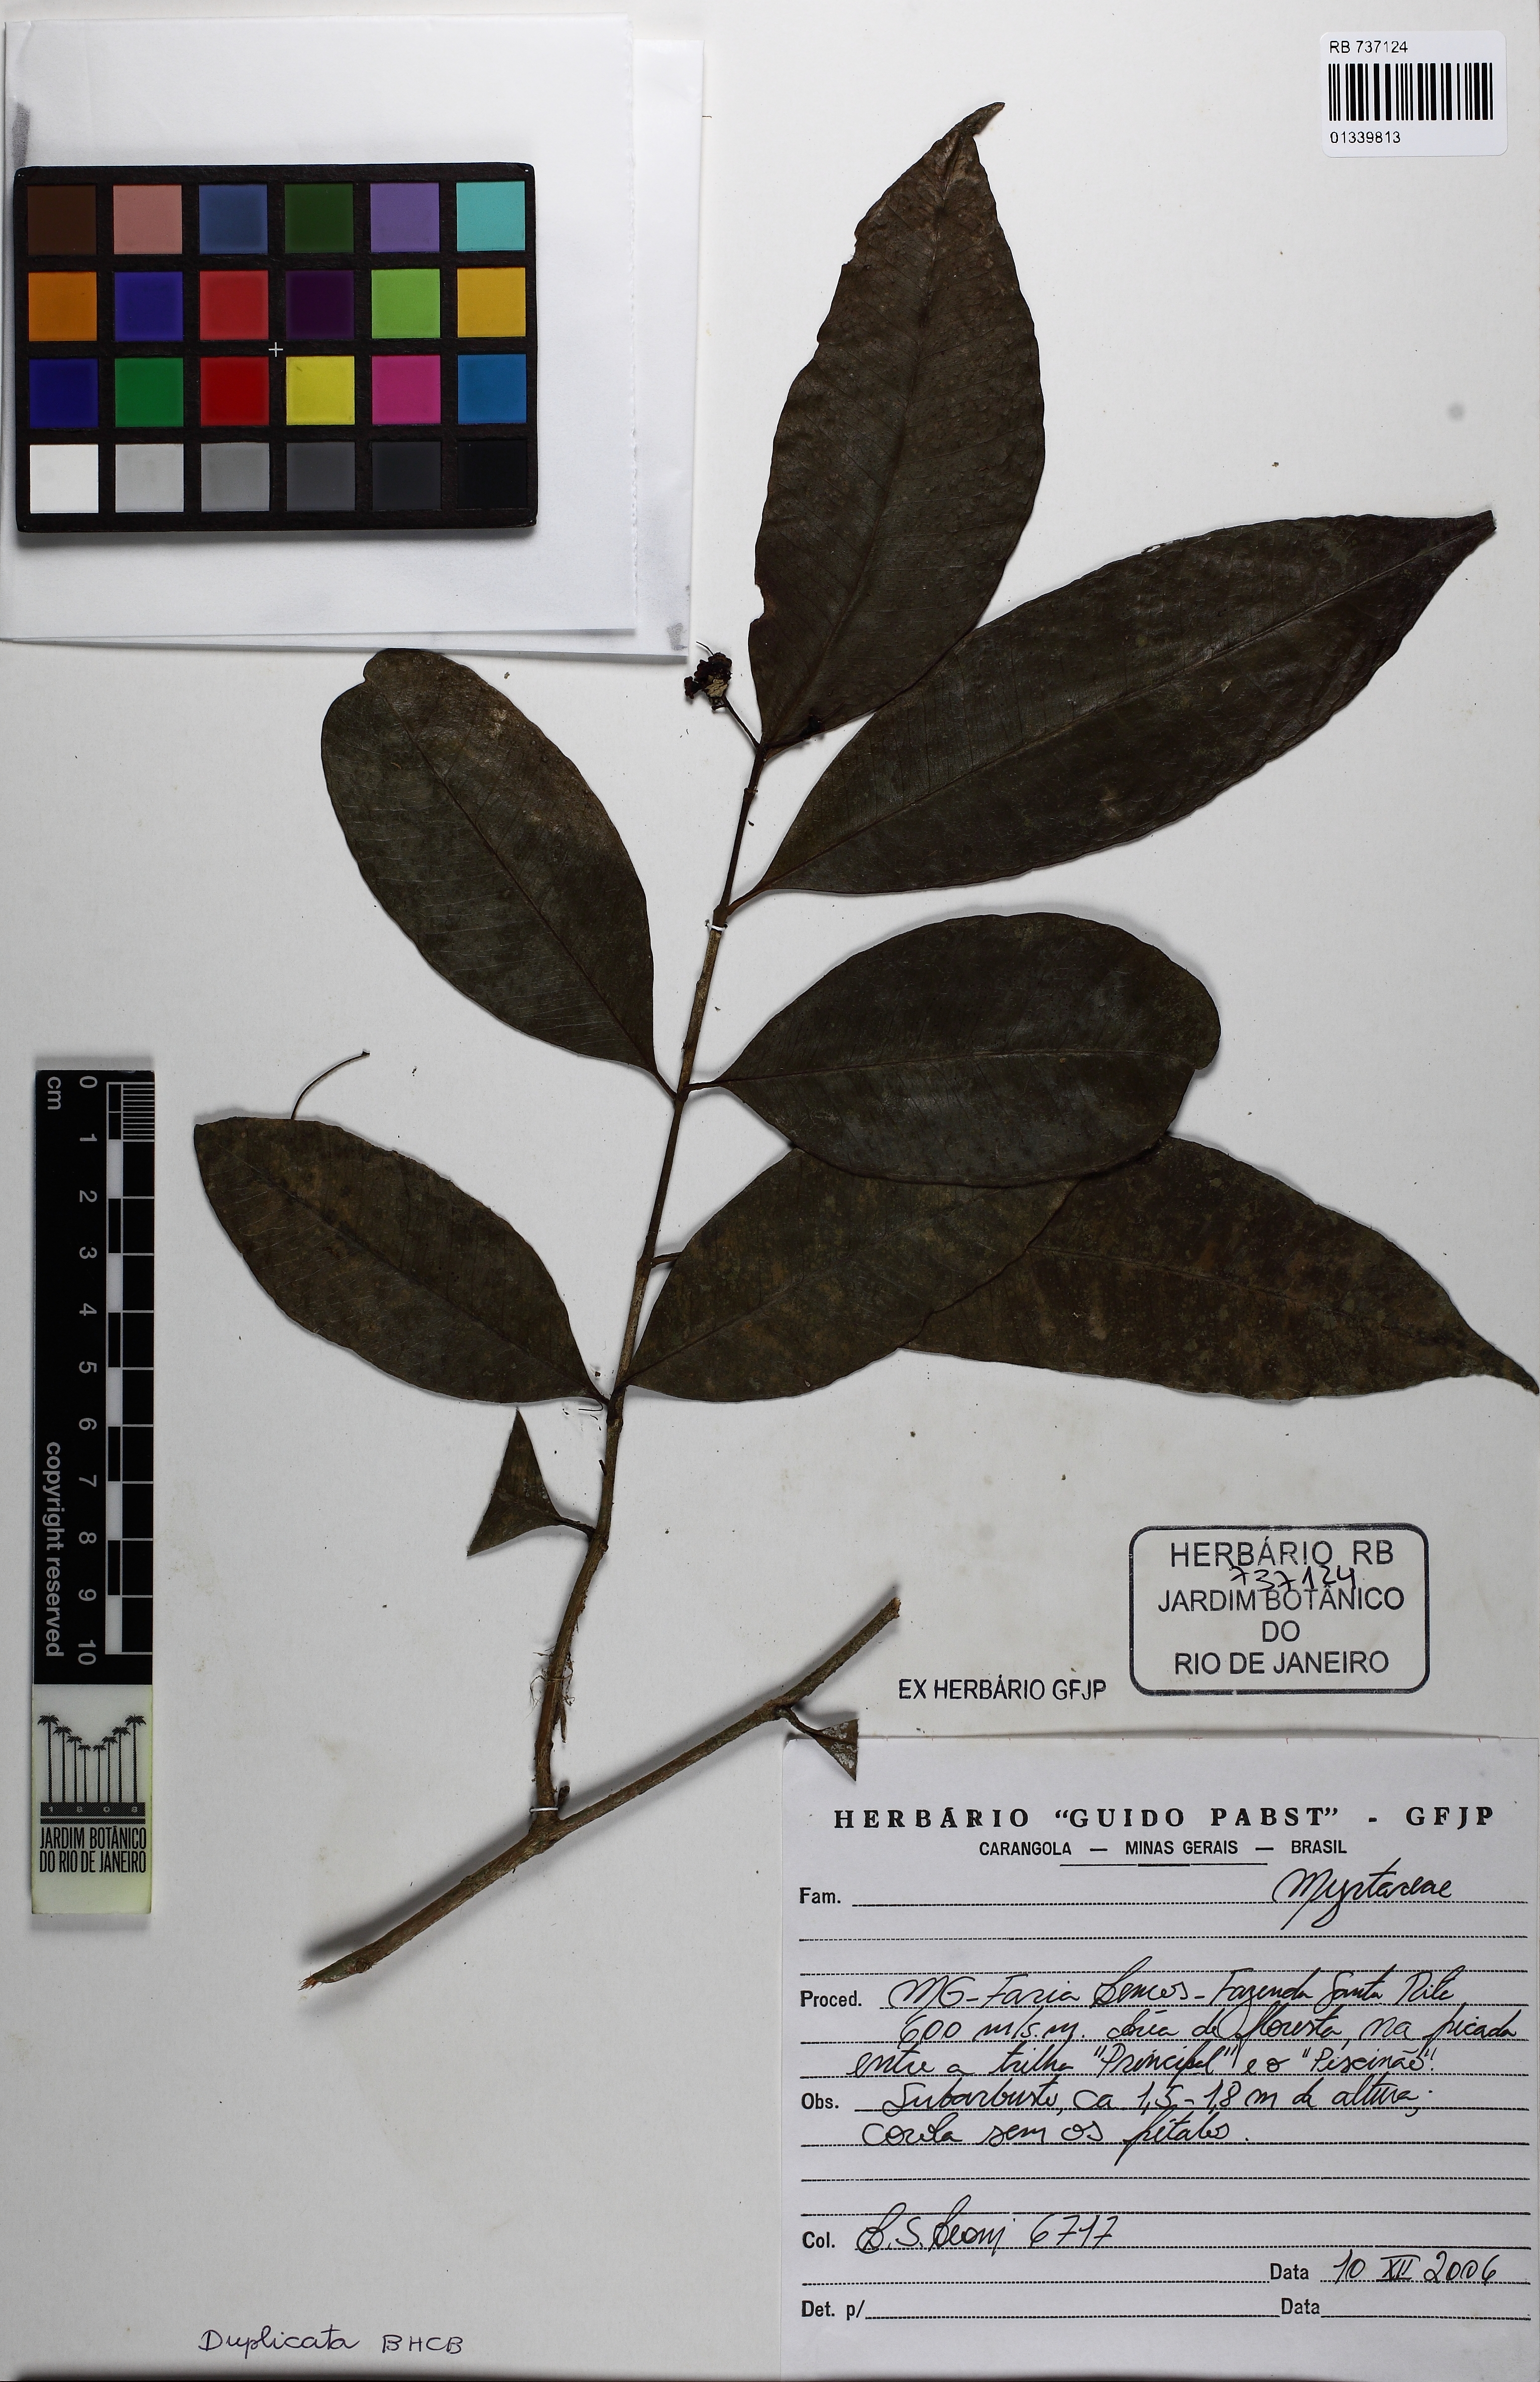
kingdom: Plantae
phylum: Tracheophyta
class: Magnoliopsida
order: Myrtales
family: Myrtaceae
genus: Myrcia
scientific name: Myrcia laxiflora
